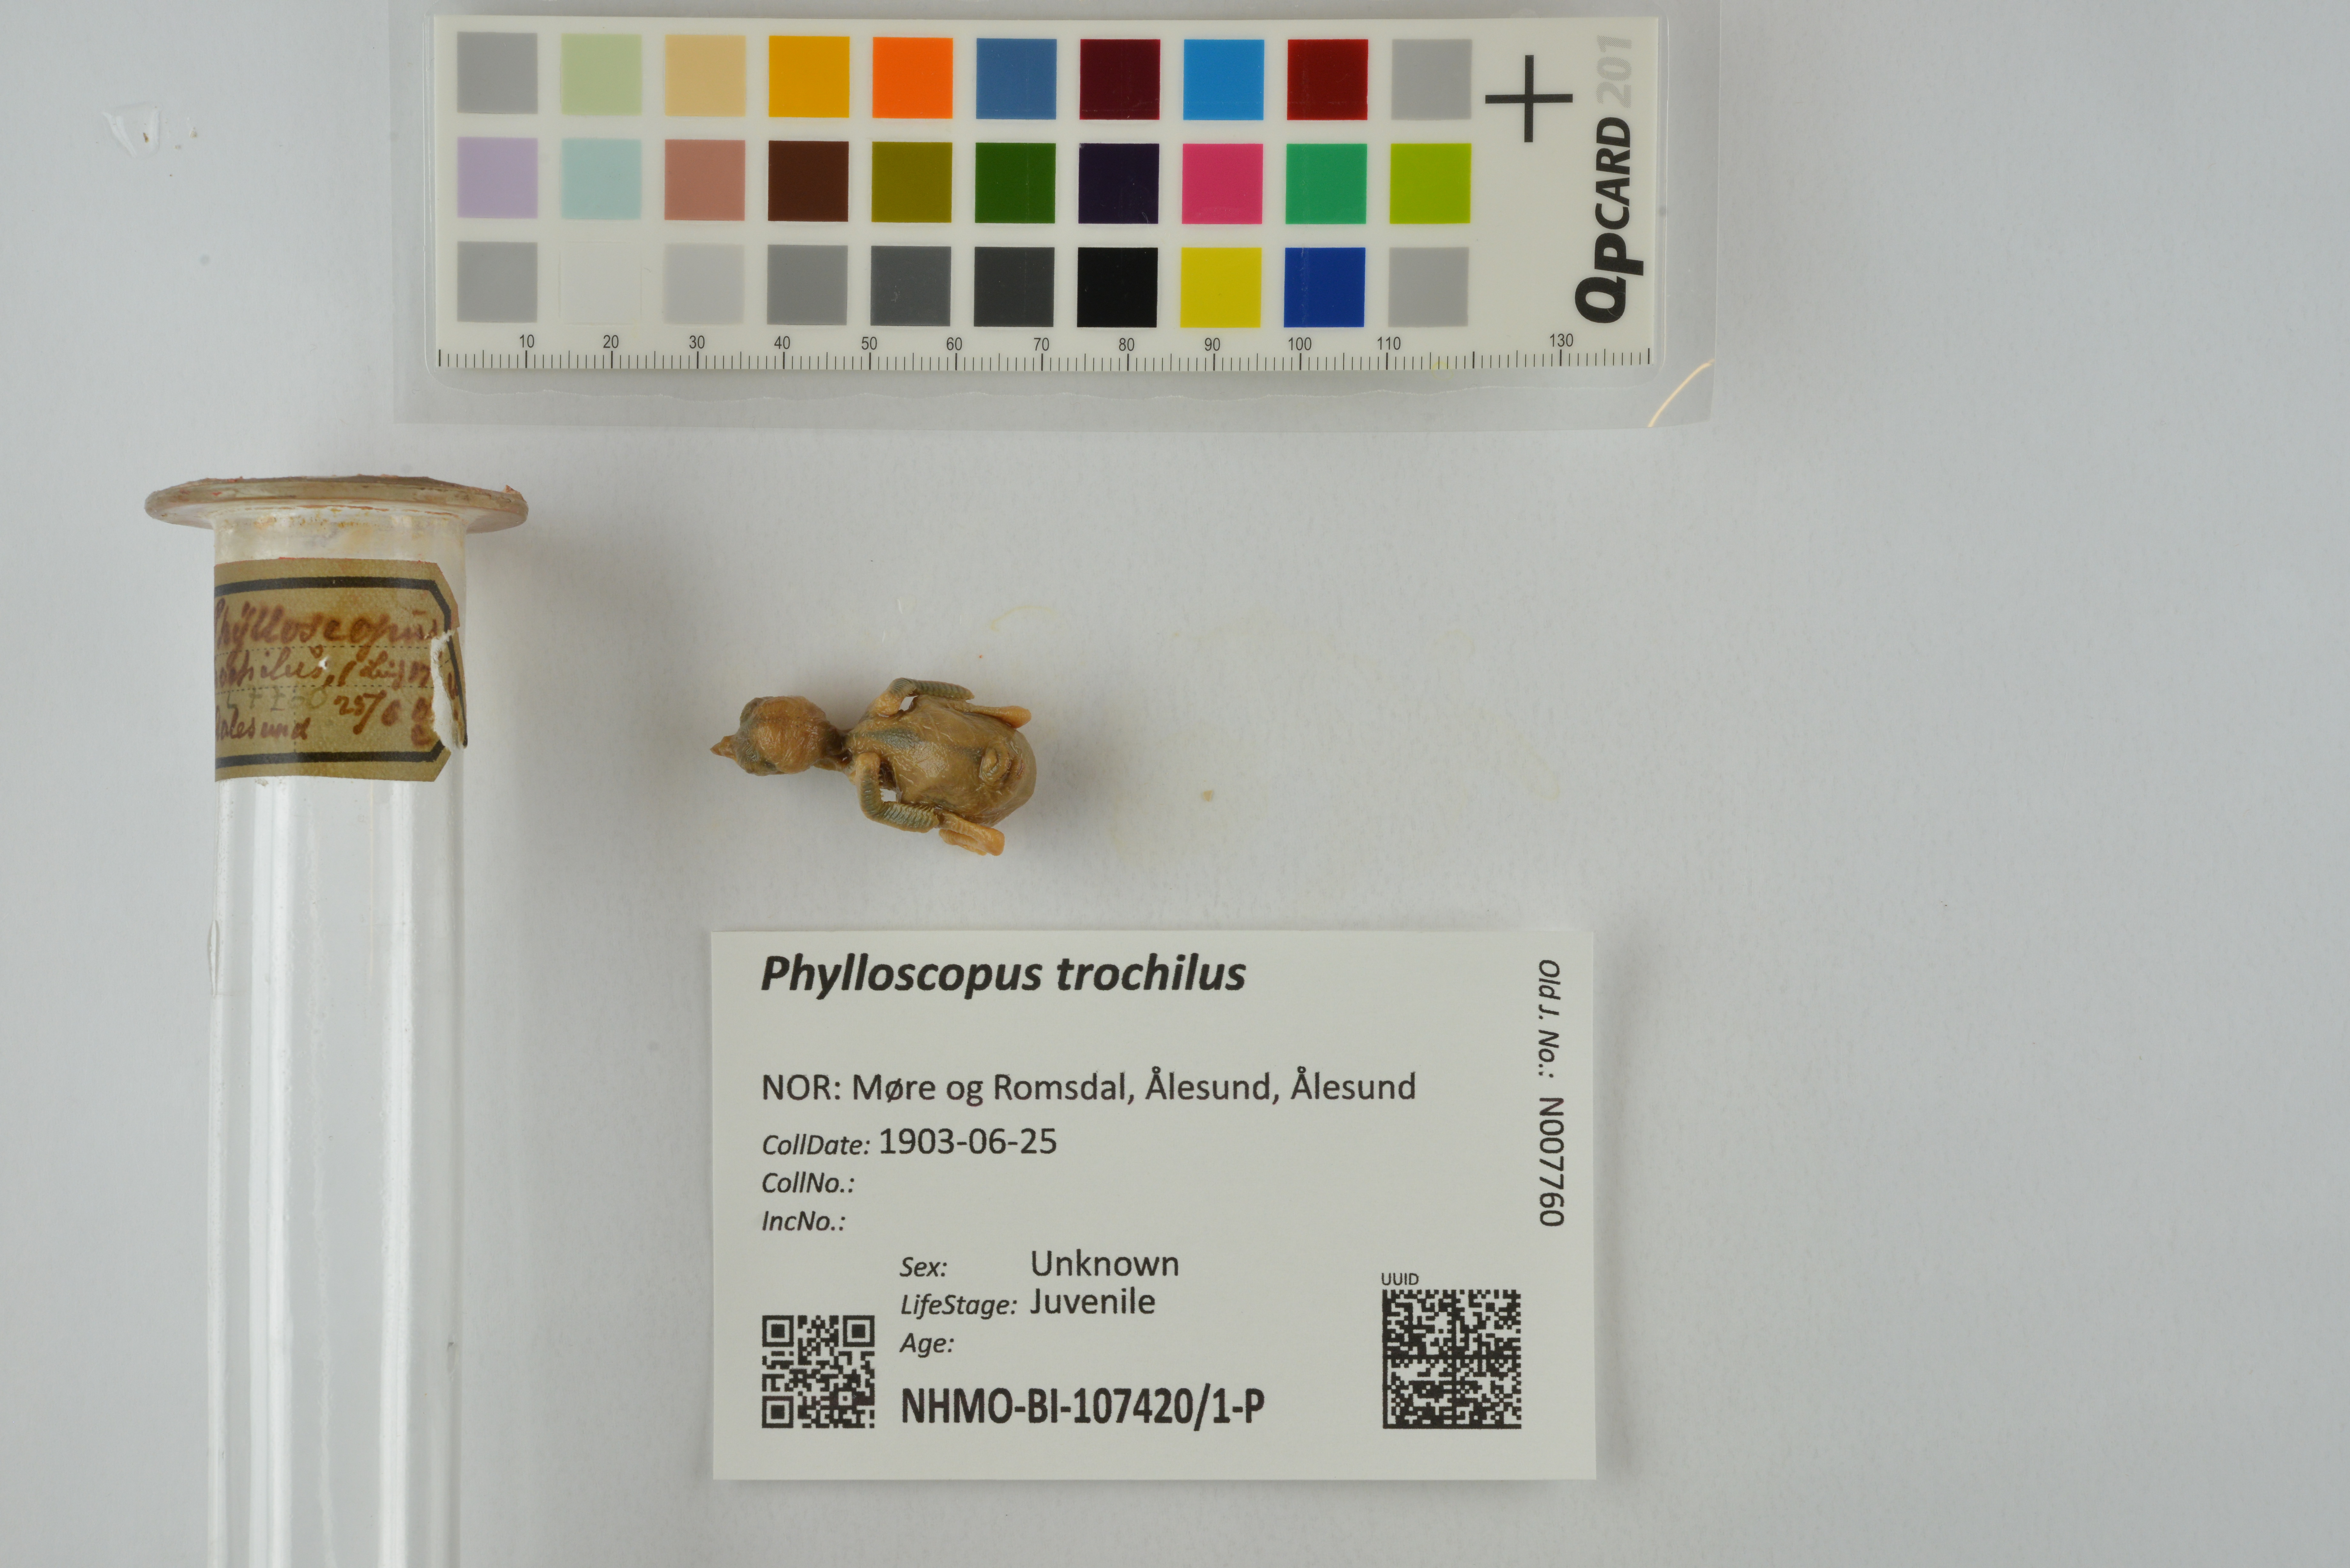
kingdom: Animalia
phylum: Chordata
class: Aves
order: Passeriformes
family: Phylloscopidae
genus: Phylloscopus
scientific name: Phylloscopus trochilus
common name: Willow warbler
